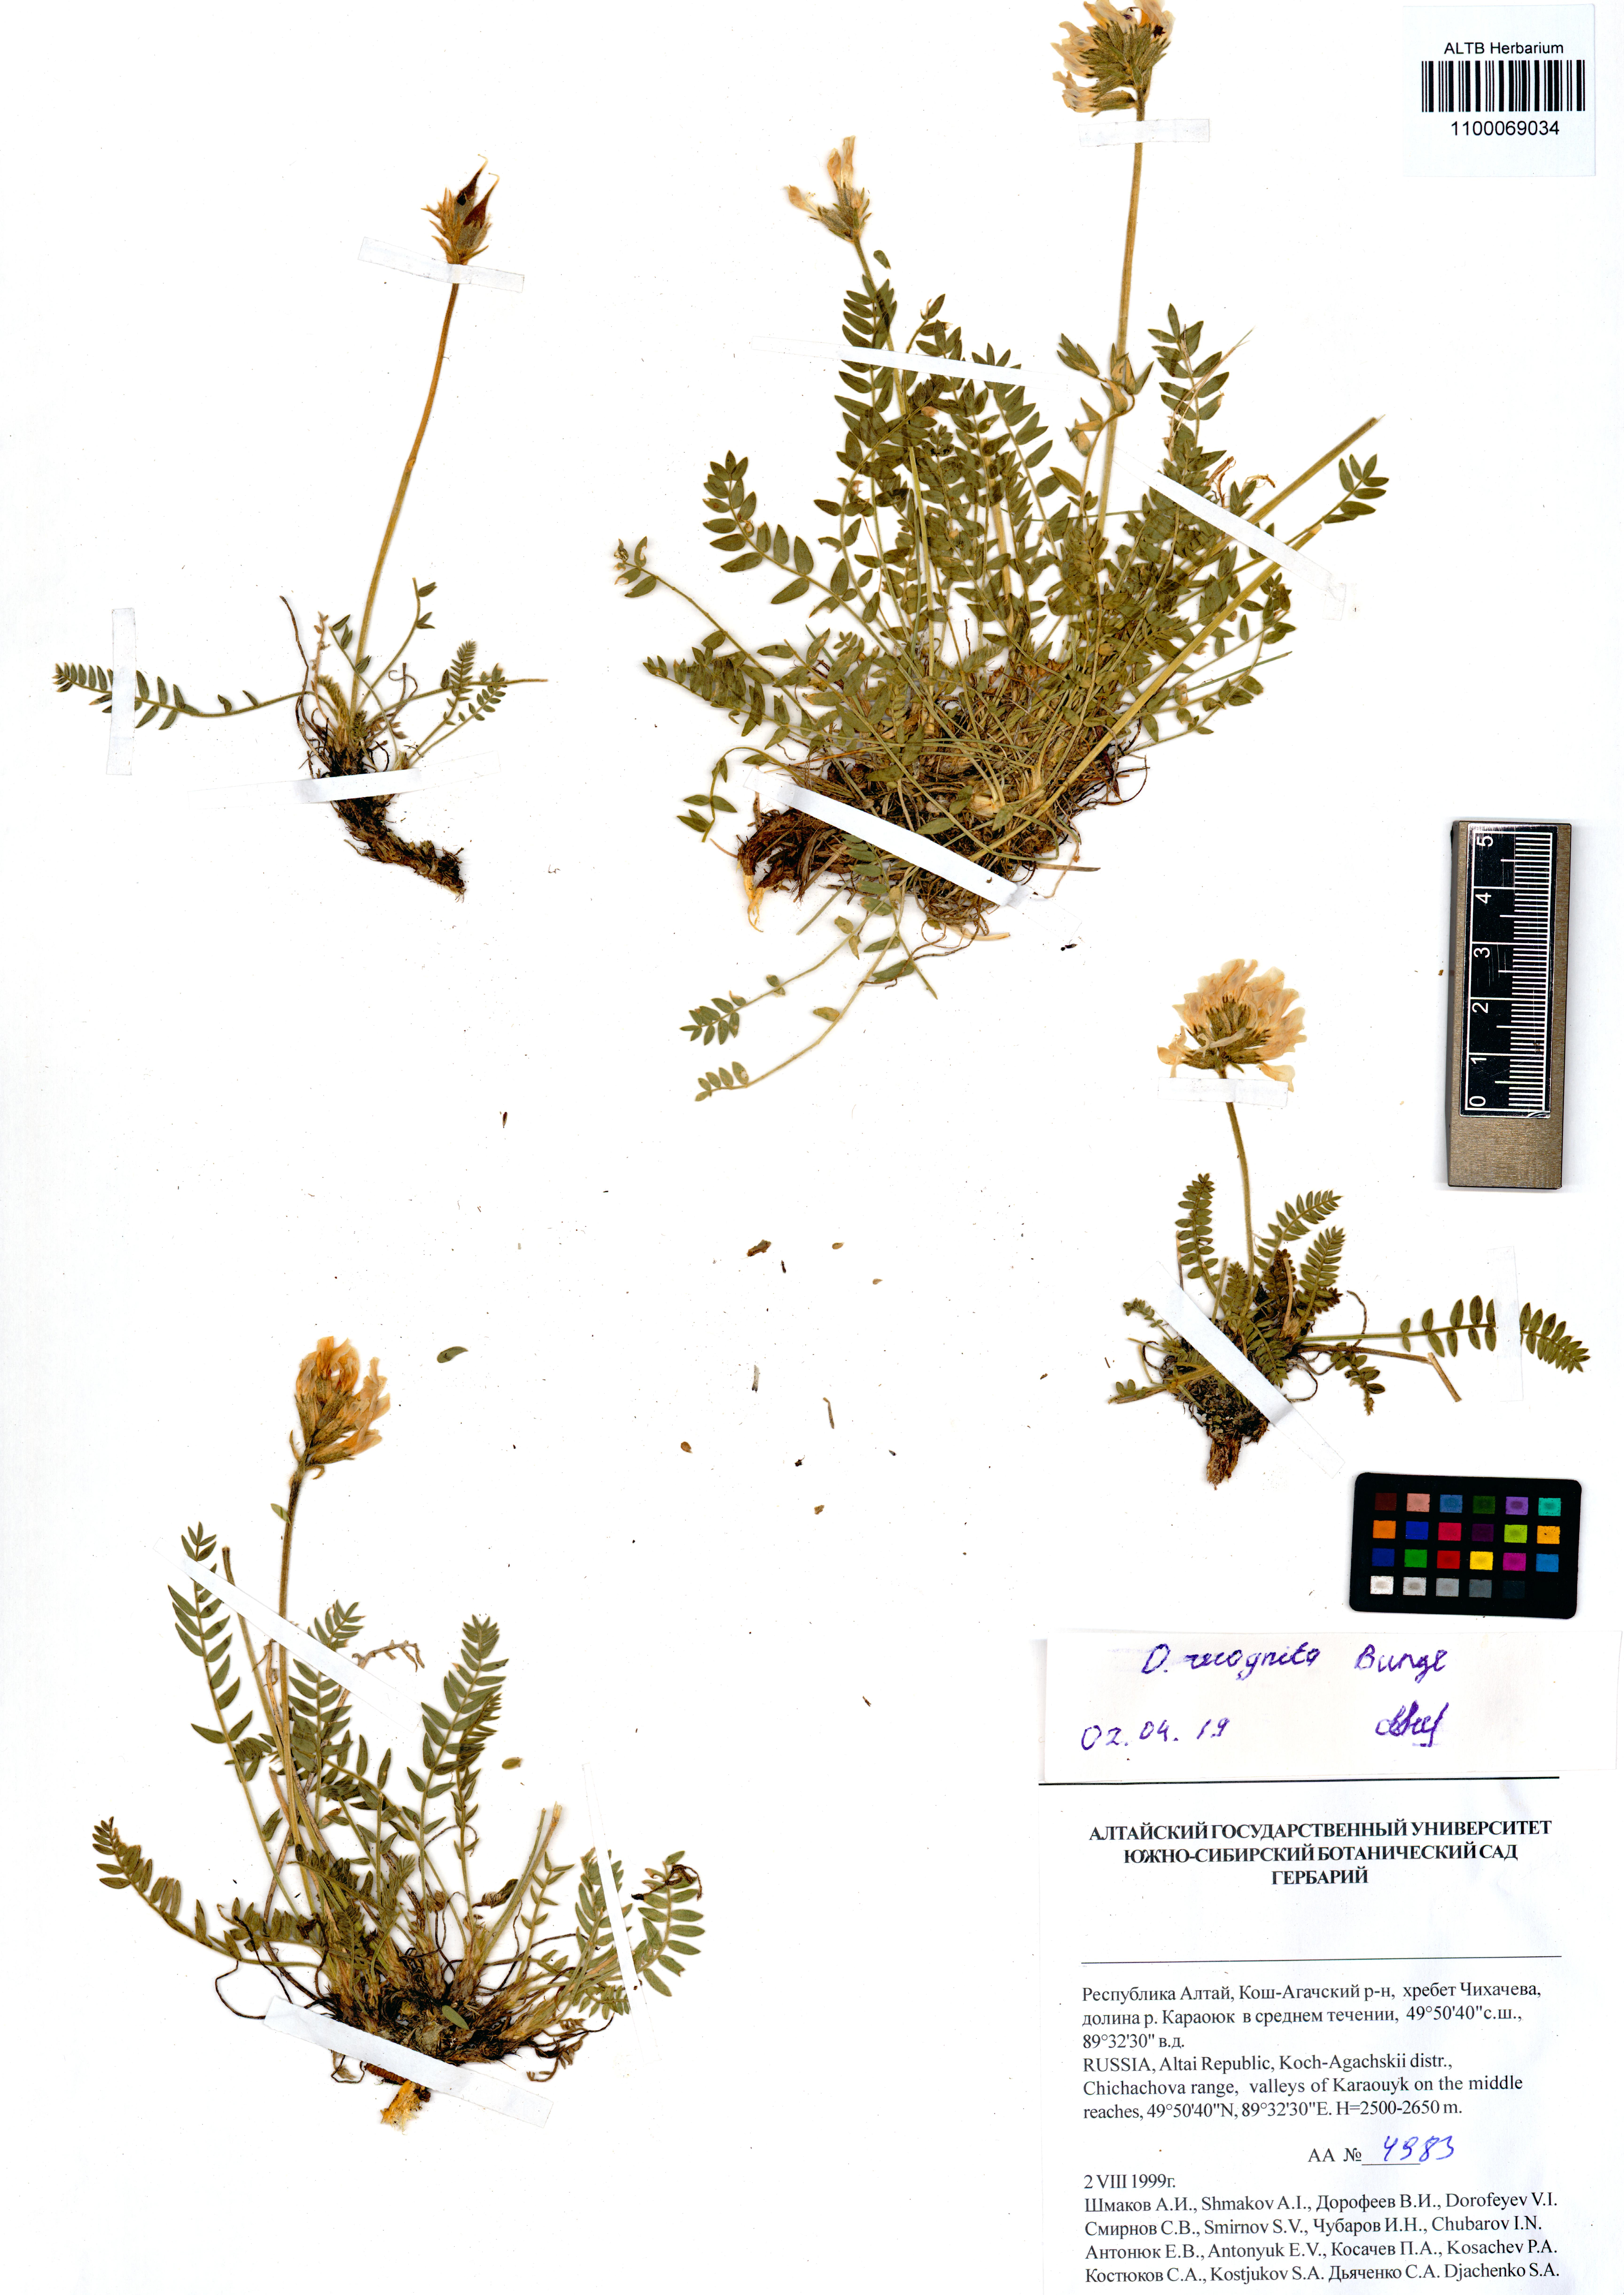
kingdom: Plantae
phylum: Tracheophyta
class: Magnoliopsida
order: Fabales
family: Fabaceae
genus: Oxytropis
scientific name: Oxytropis recognita
